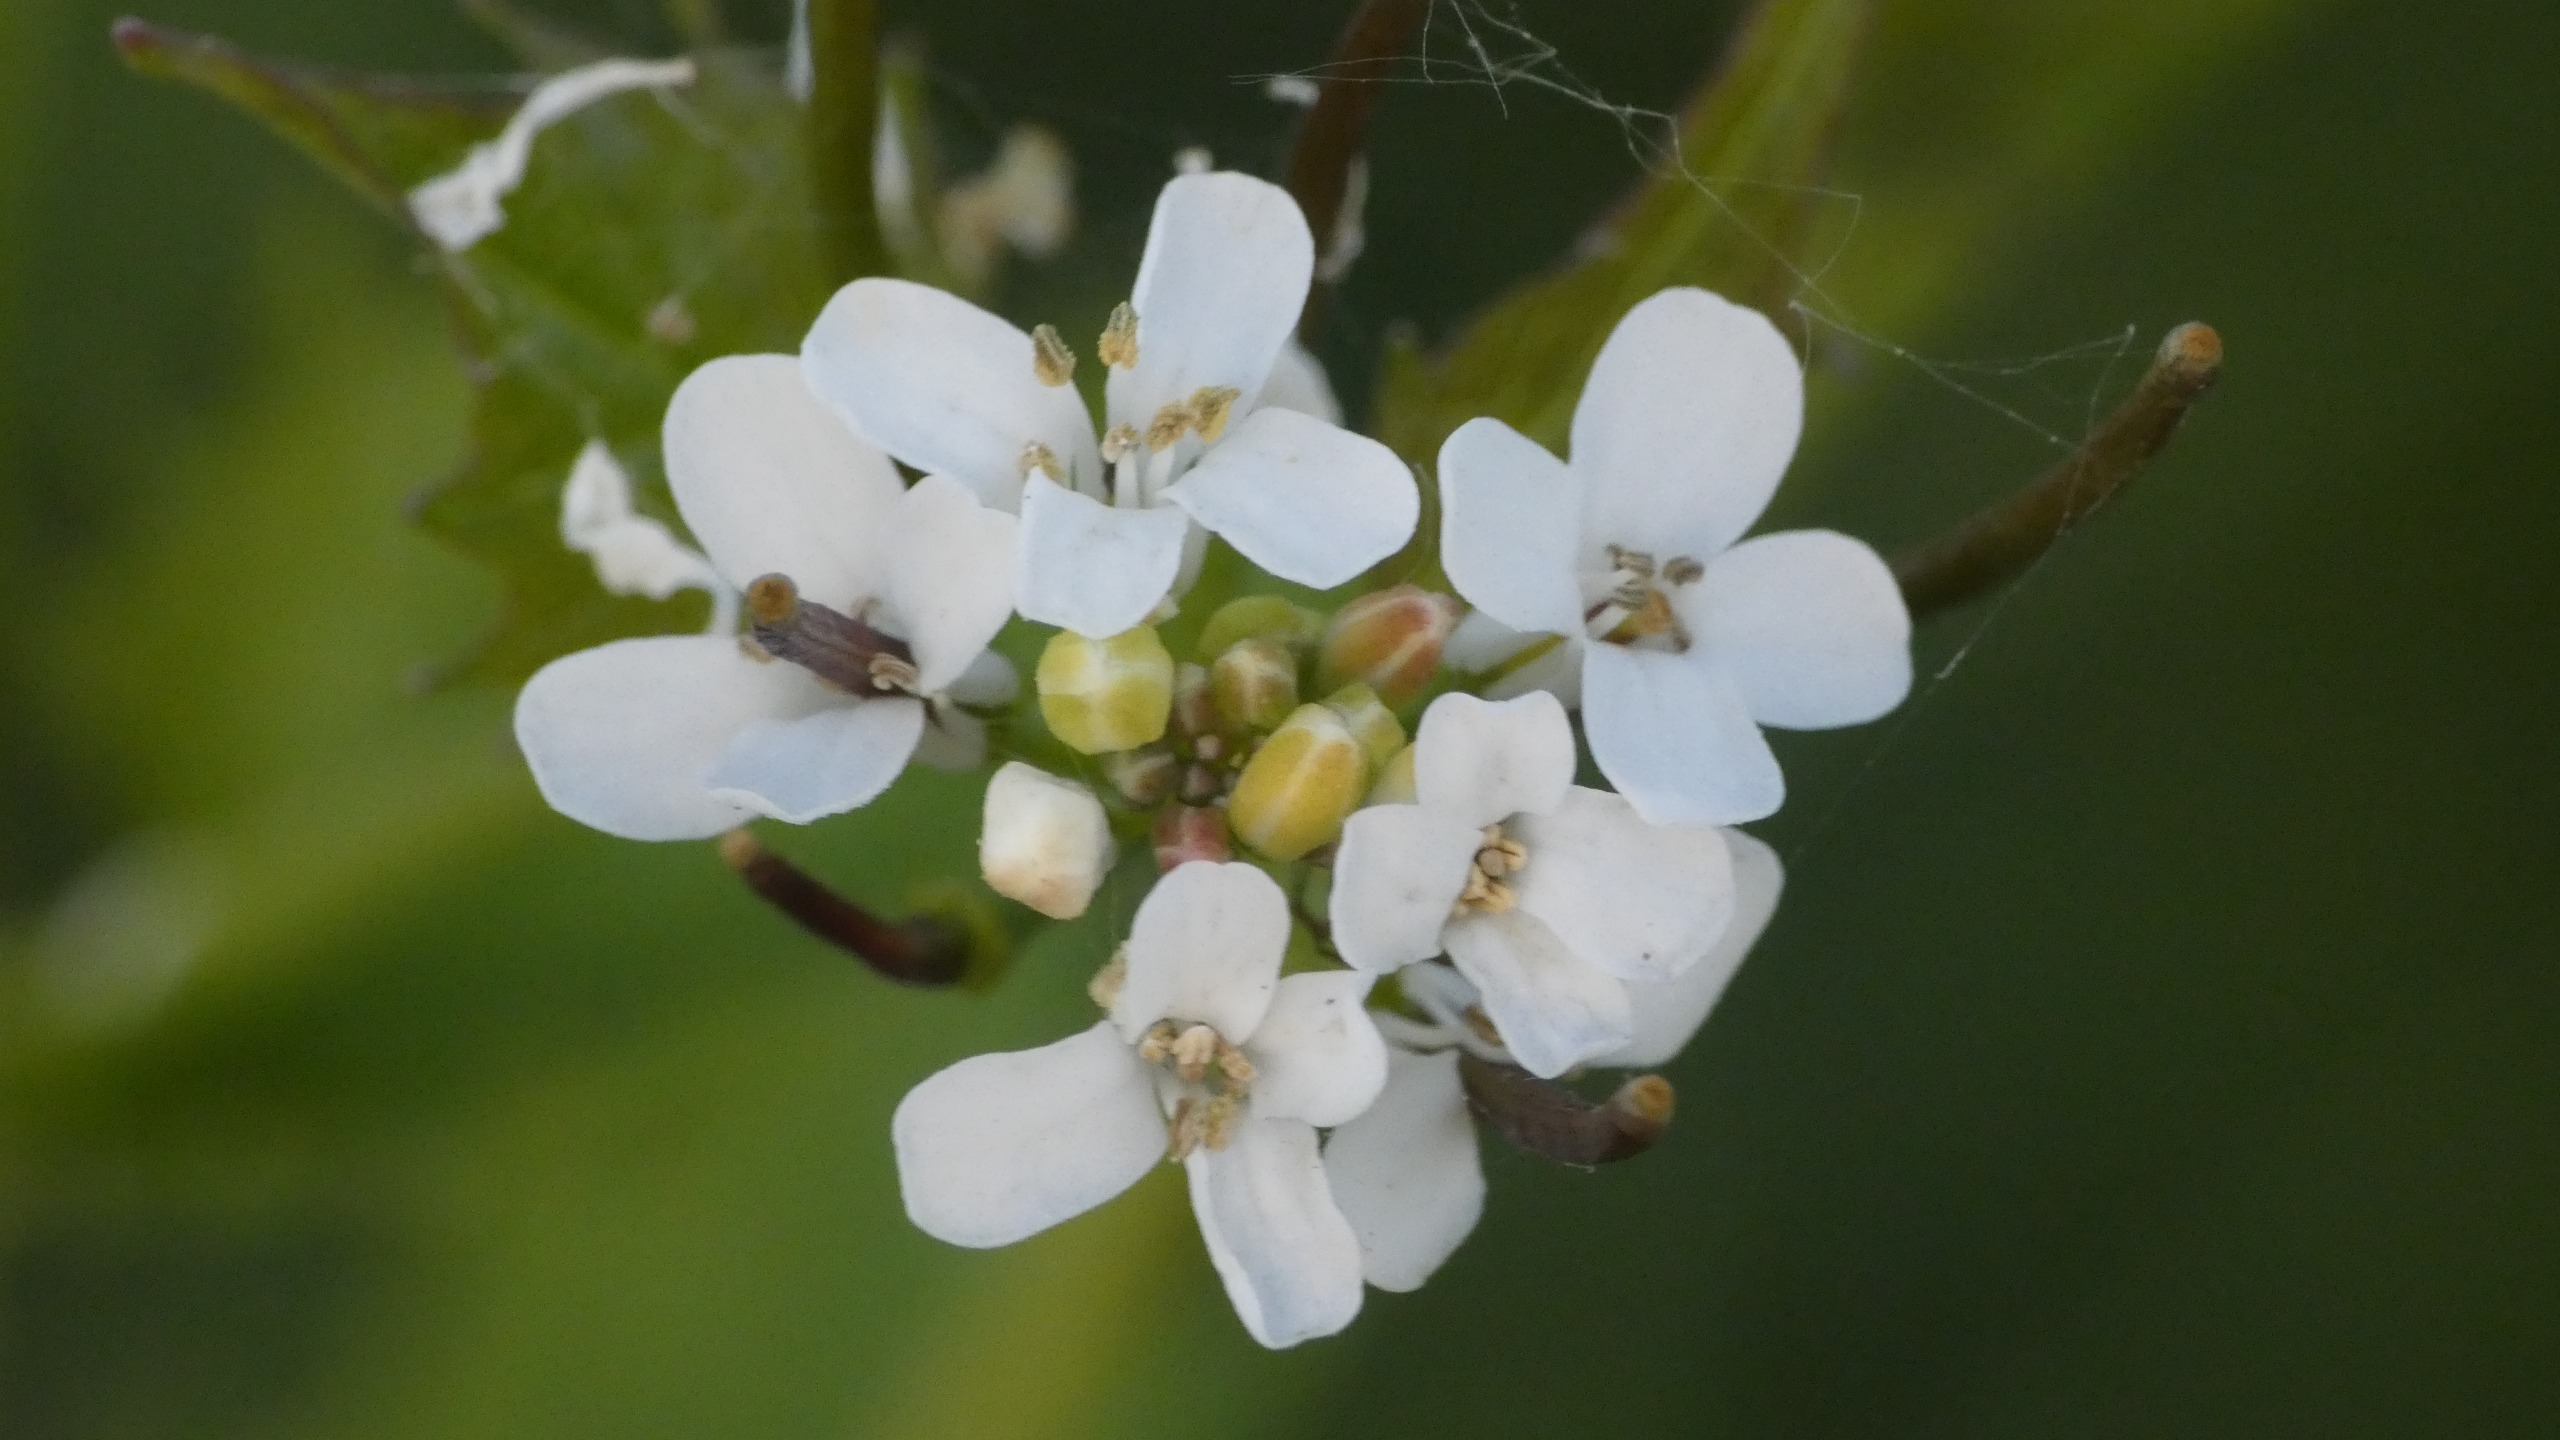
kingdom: Plantae
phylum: Tracheophyta
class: Magnoliopsida
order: Brassicales
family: Brassicaceae
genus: Alliaria
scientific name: Alliaria petiolata
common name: Løgkarse
